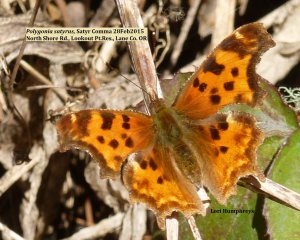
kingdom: Animalia
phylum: Arthropoda
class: Insecta
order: Lepidoptera
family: Nymphalidae
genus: Polygonia
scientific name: Polygonia satyrus
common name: Satyr Comma
